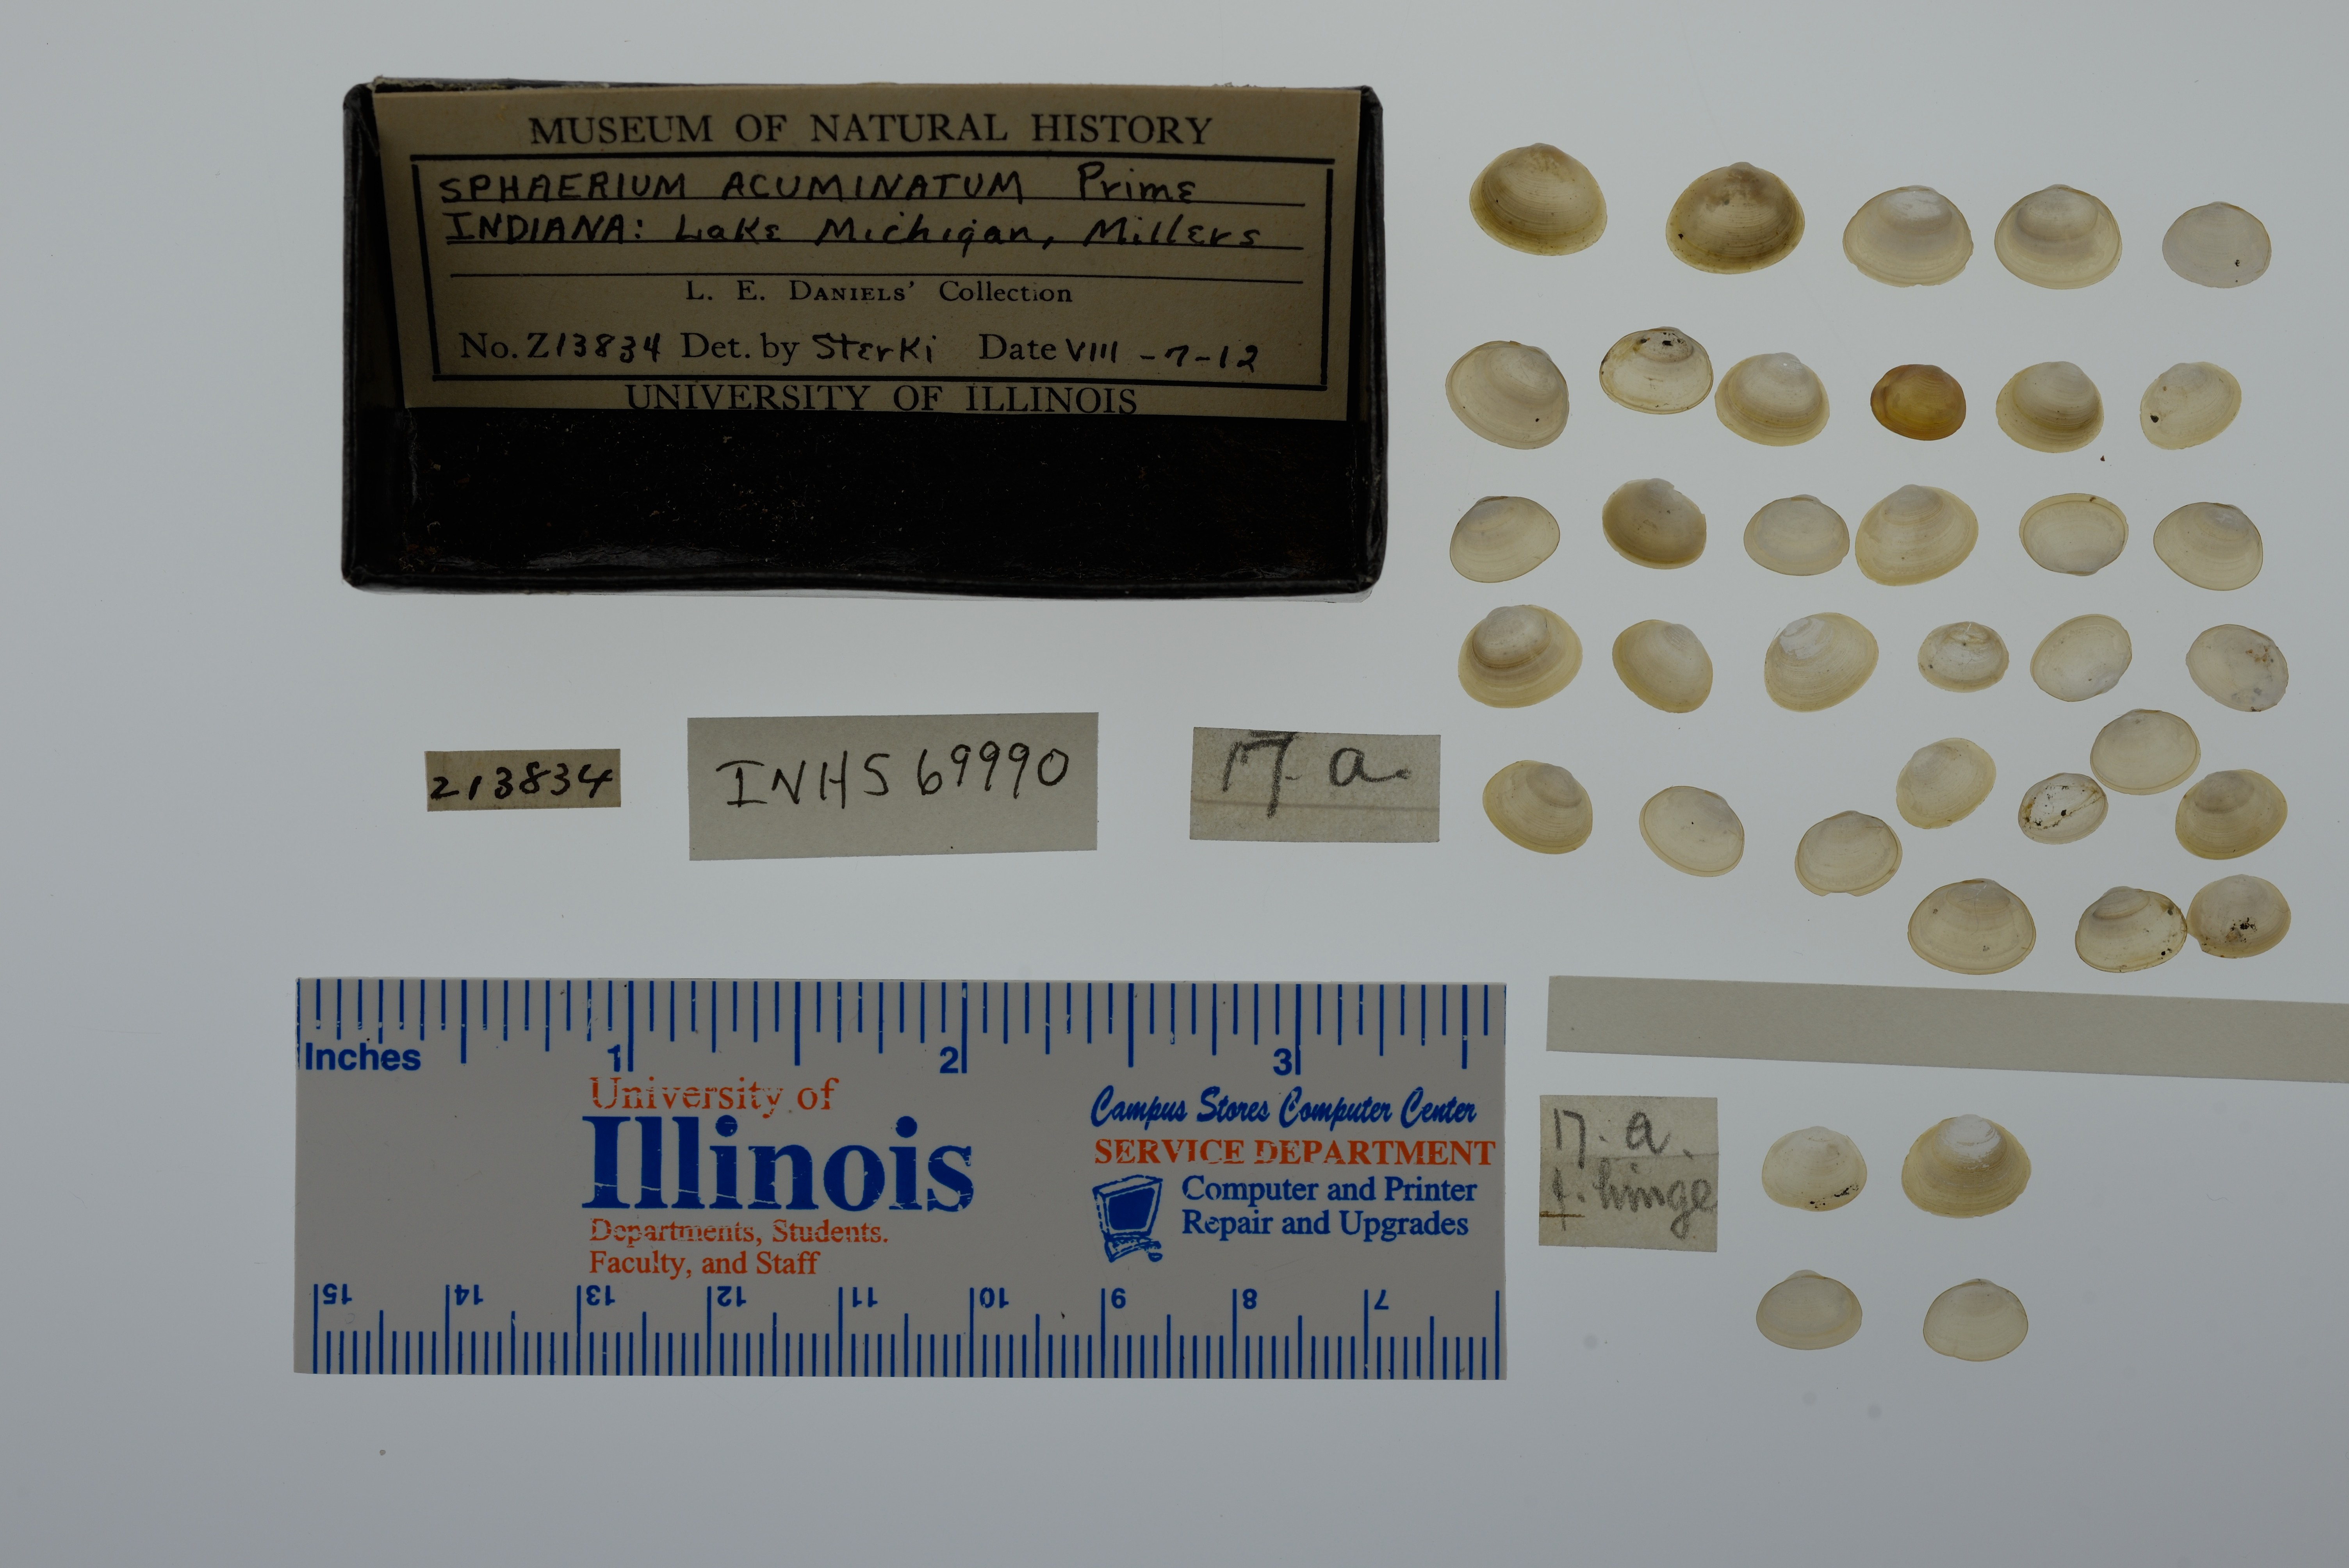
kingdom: Animalia
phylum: Mollusca
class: Bivalvia
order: Sphaeriida
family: Sphaeriidae
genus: Sphaerium
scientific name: Sphaerium striatinum
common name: Striated fingernailclam
